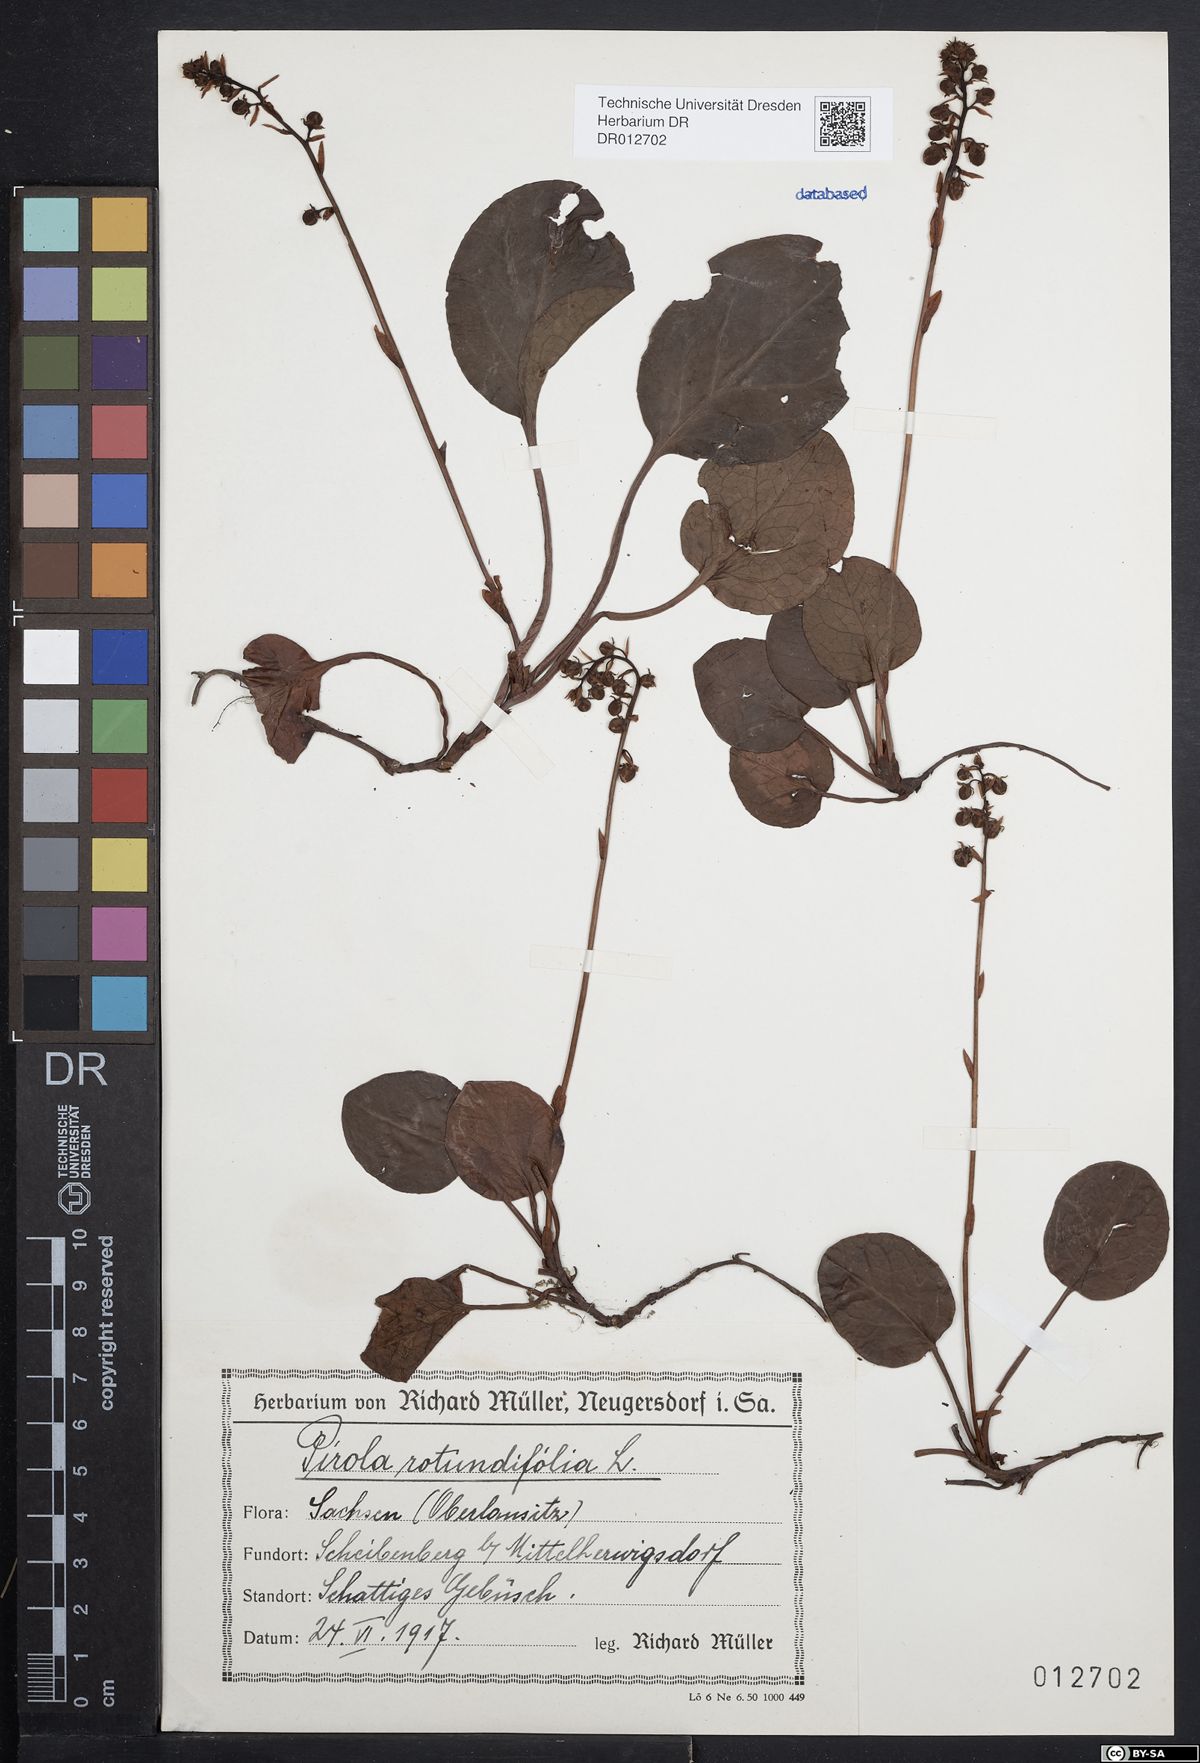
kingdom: Plantae
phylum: Tracheophyta
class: Magnoliopsida
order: Ericales
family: Ericaceae
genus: Pyrola
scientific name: Pyrola rotundifolia
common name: Round-leaved wintergreen
